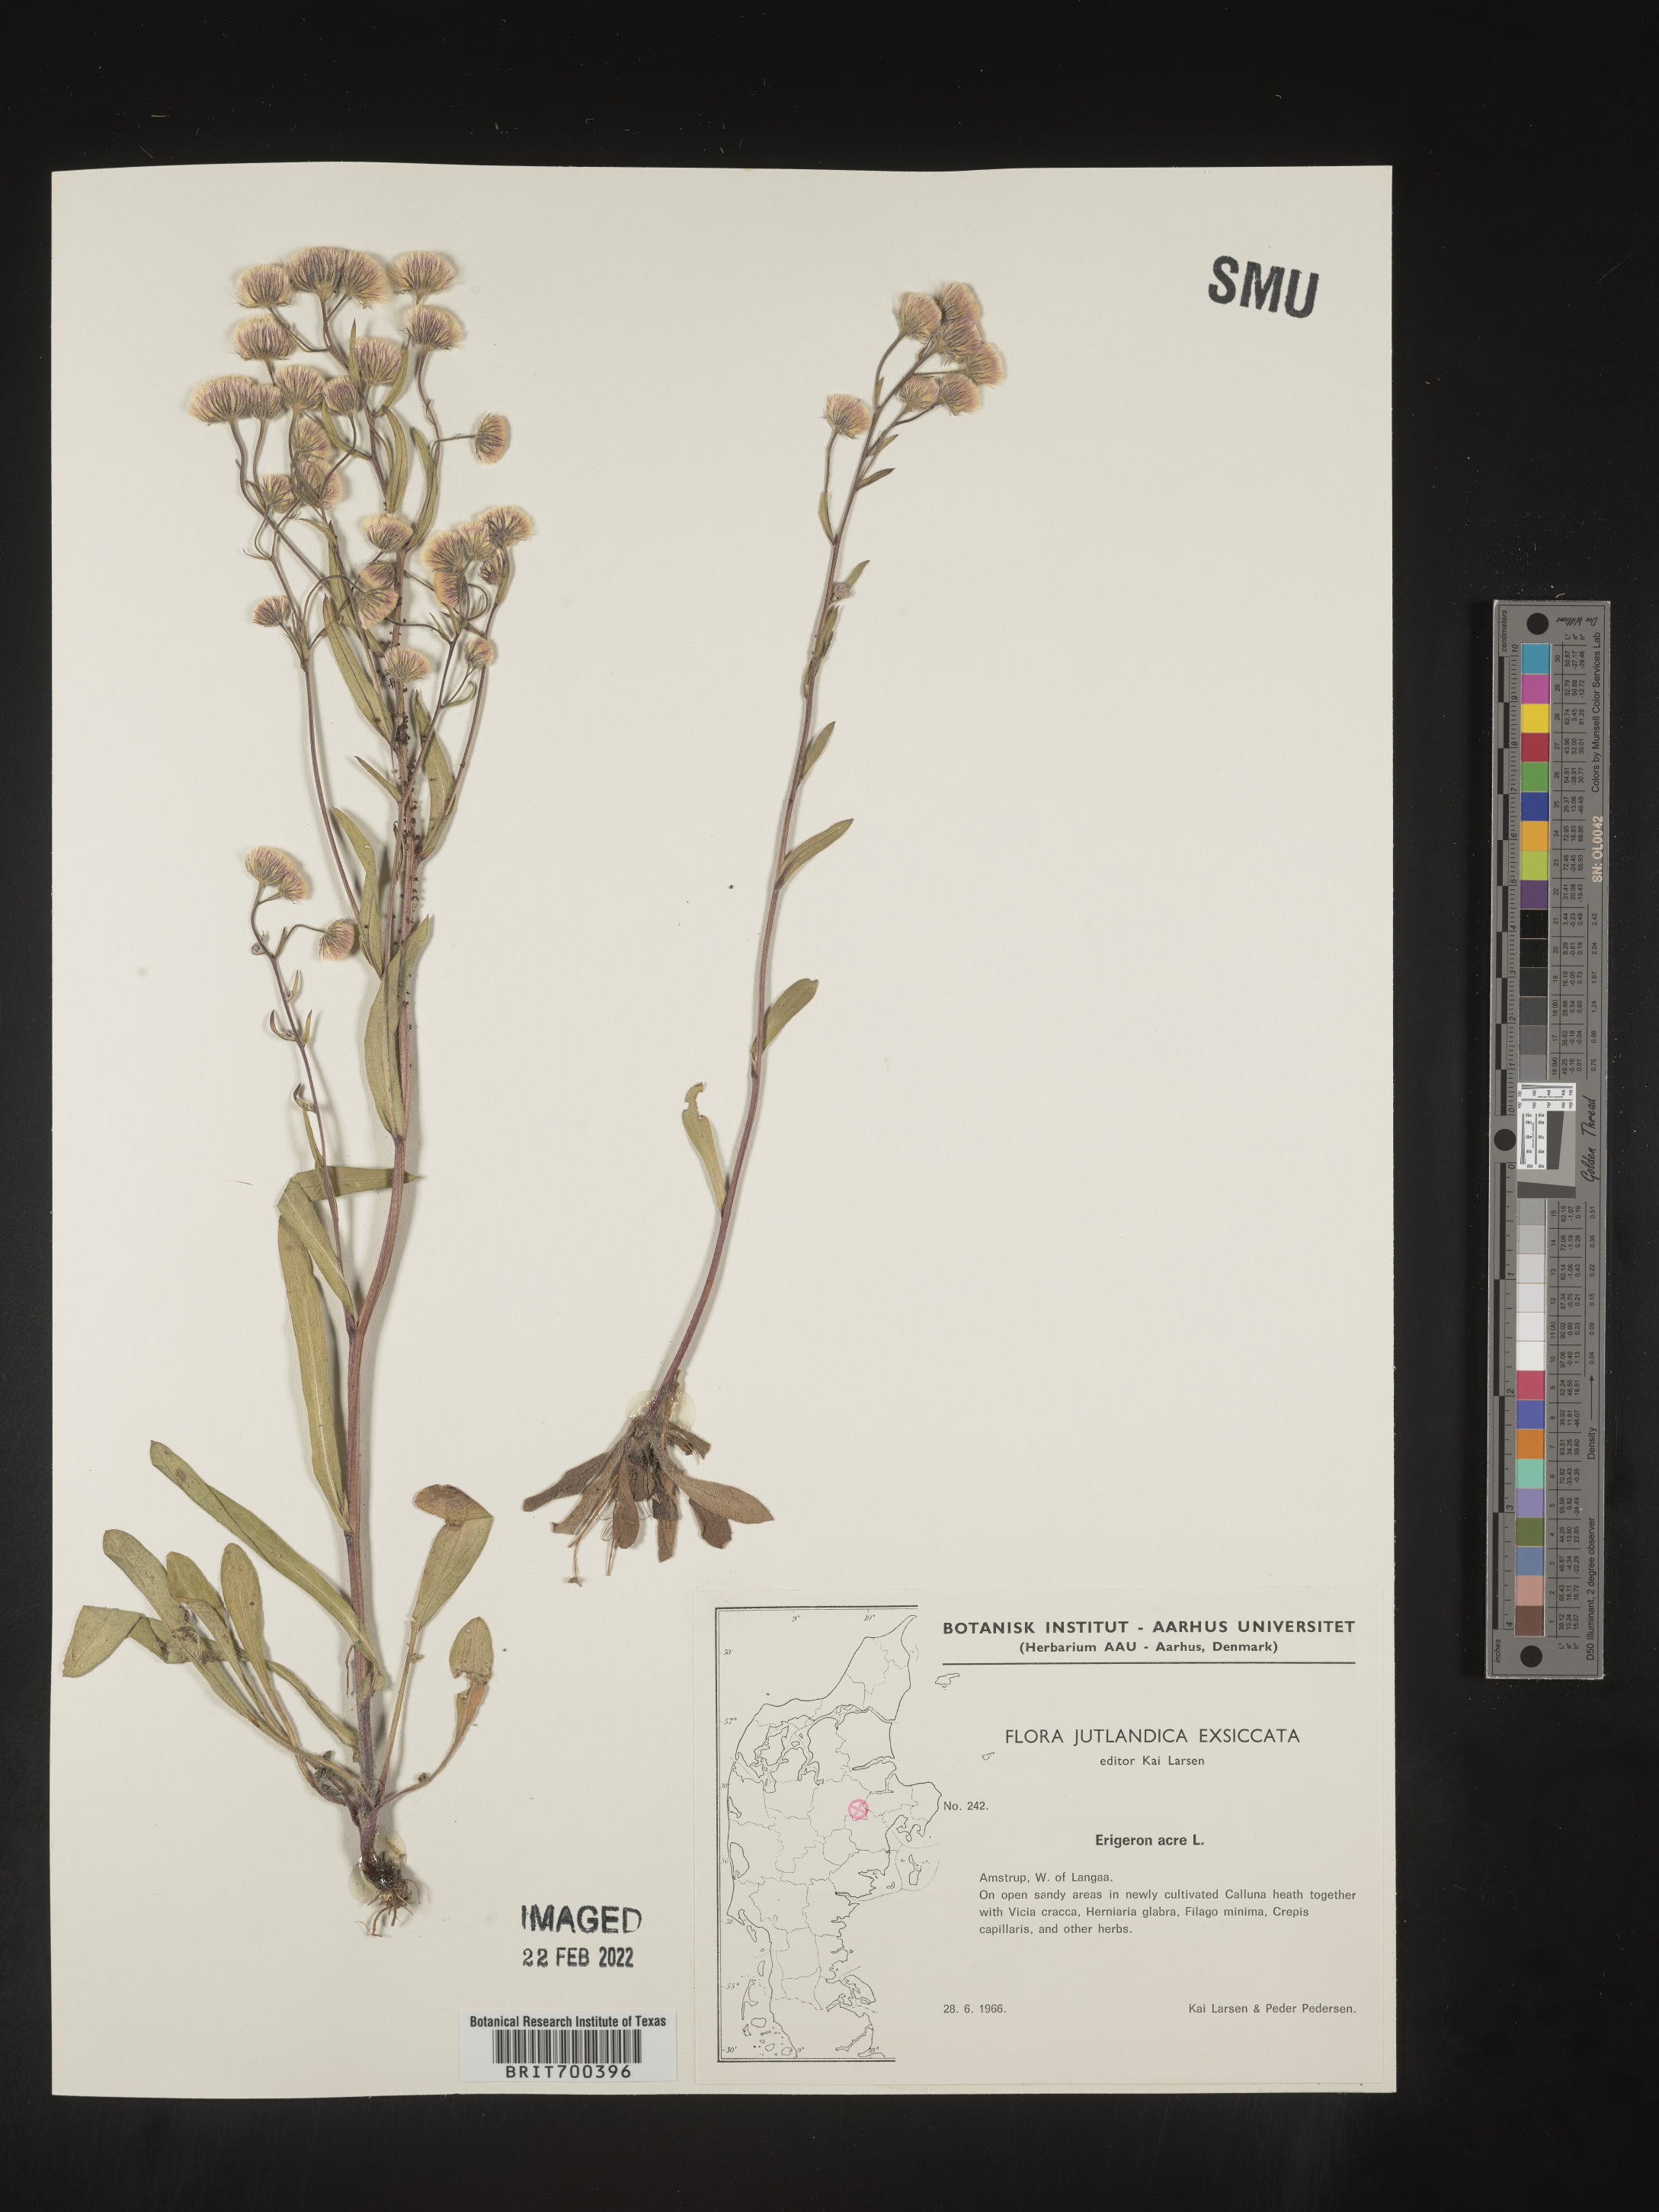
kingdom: Plantae
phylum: Tracheophyta
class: Magnoliopsida
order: Asterales
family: Asteraceae
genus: Erigeron
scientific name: Erigeron
